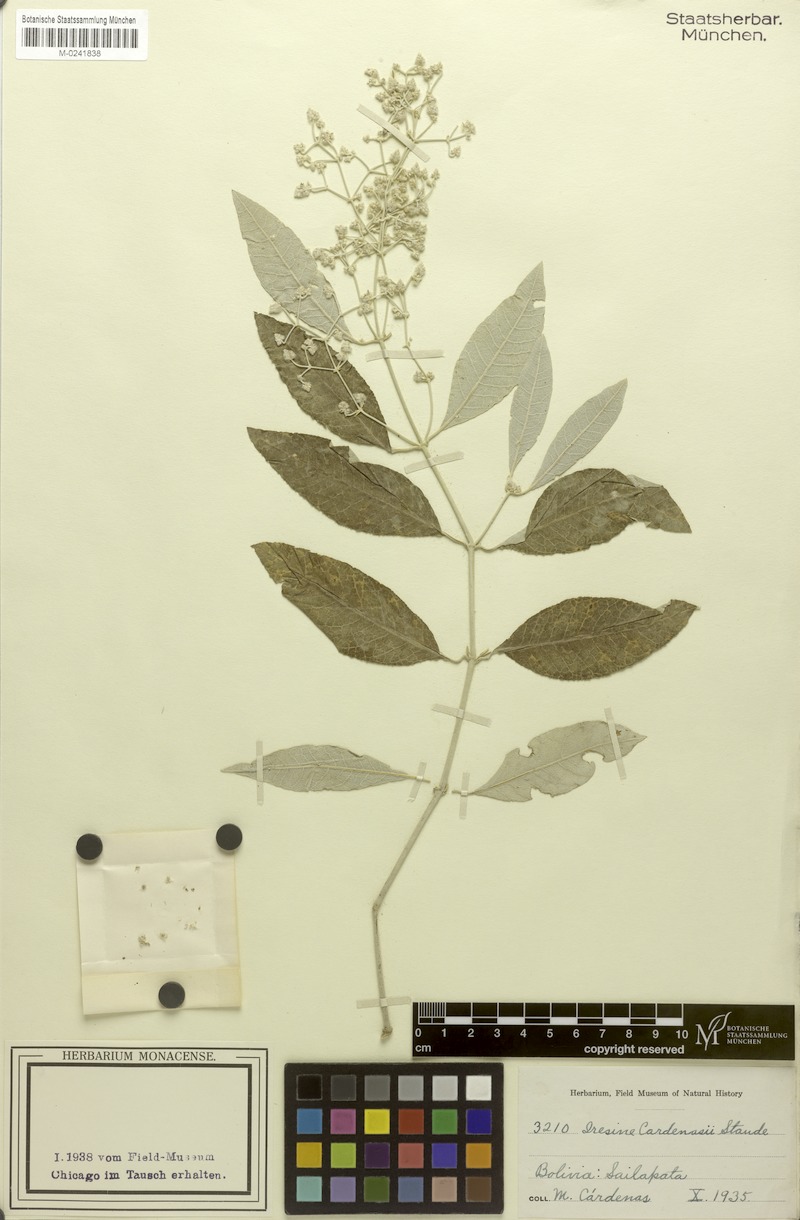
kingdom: Plantae
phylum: Tracheophyta
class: Magnoliopsida
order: Caryophyllales
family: Amaranthaceae
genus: Pedersenia
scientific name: Pedersenia cardenasii
